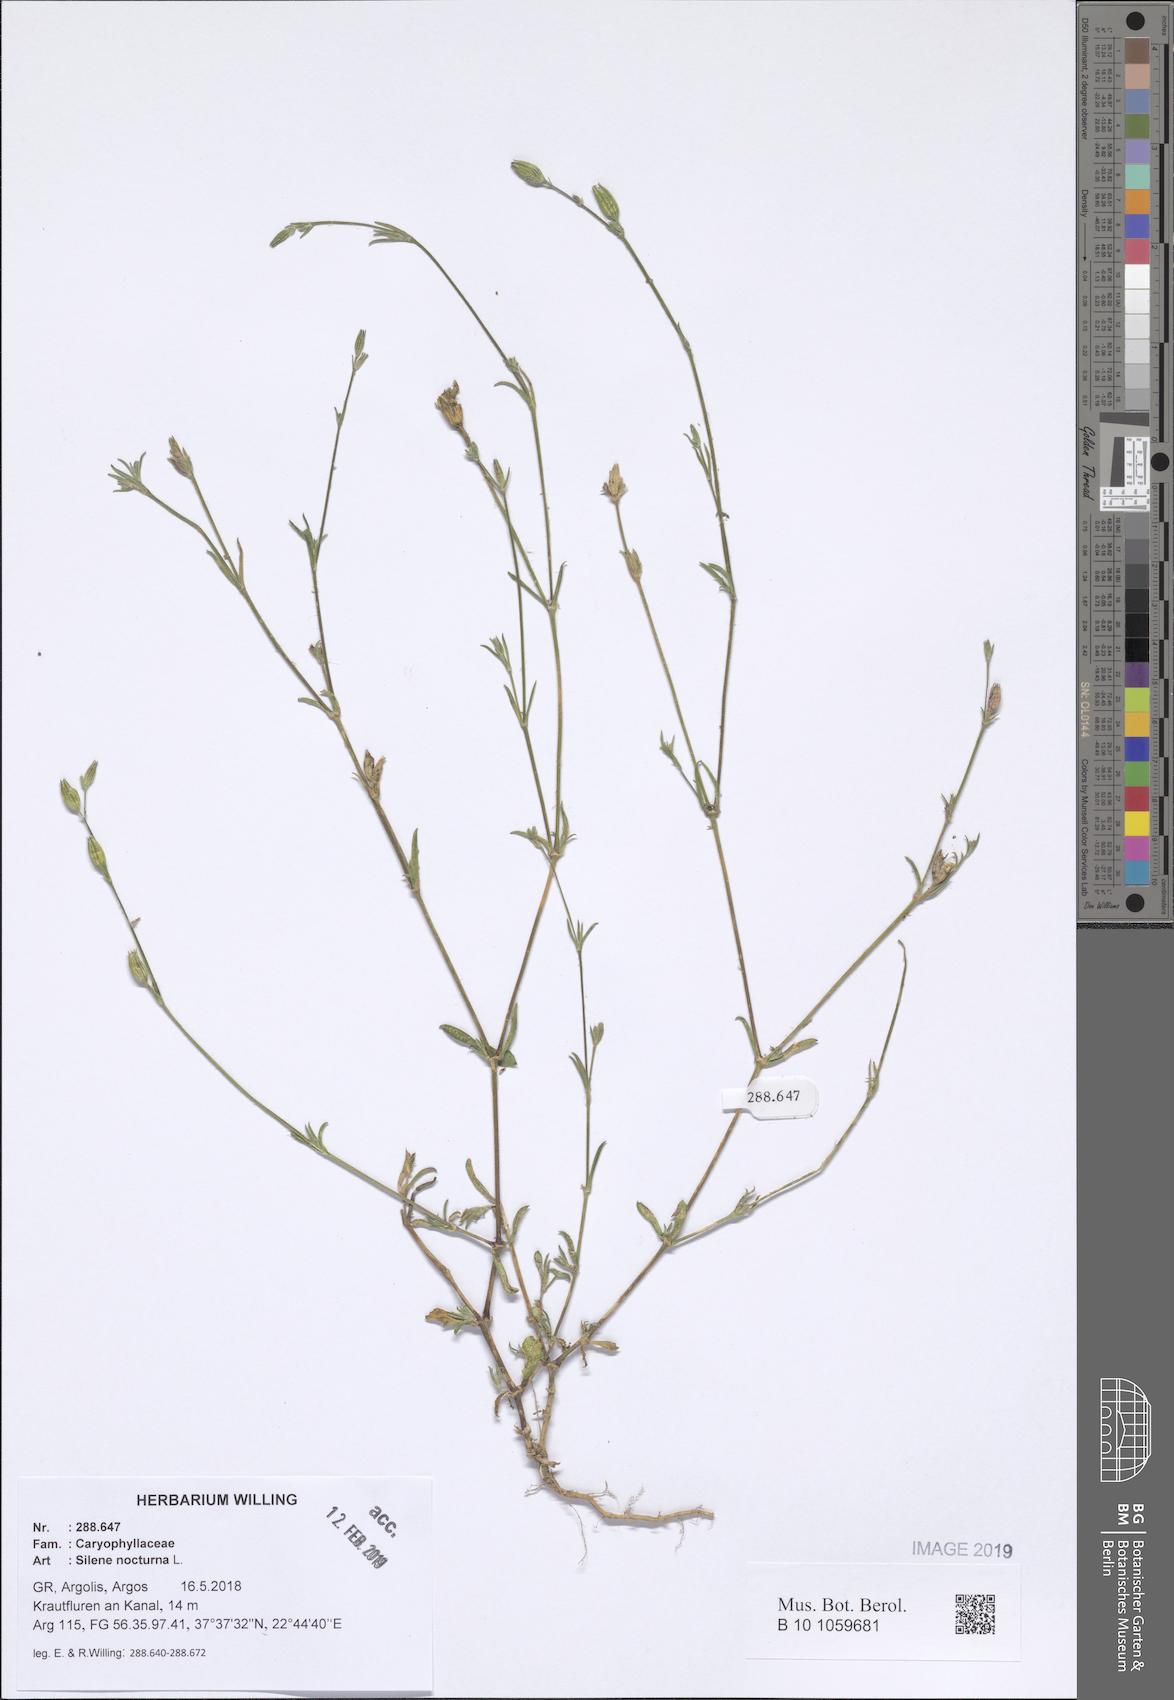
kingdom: Plantae
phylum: Tracheophyta
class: Magnoliopsida
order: Caryophyllales
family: Caryophyllaceae
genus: Silene
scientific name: Silene nocturna
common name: Mediterranean catchfly
